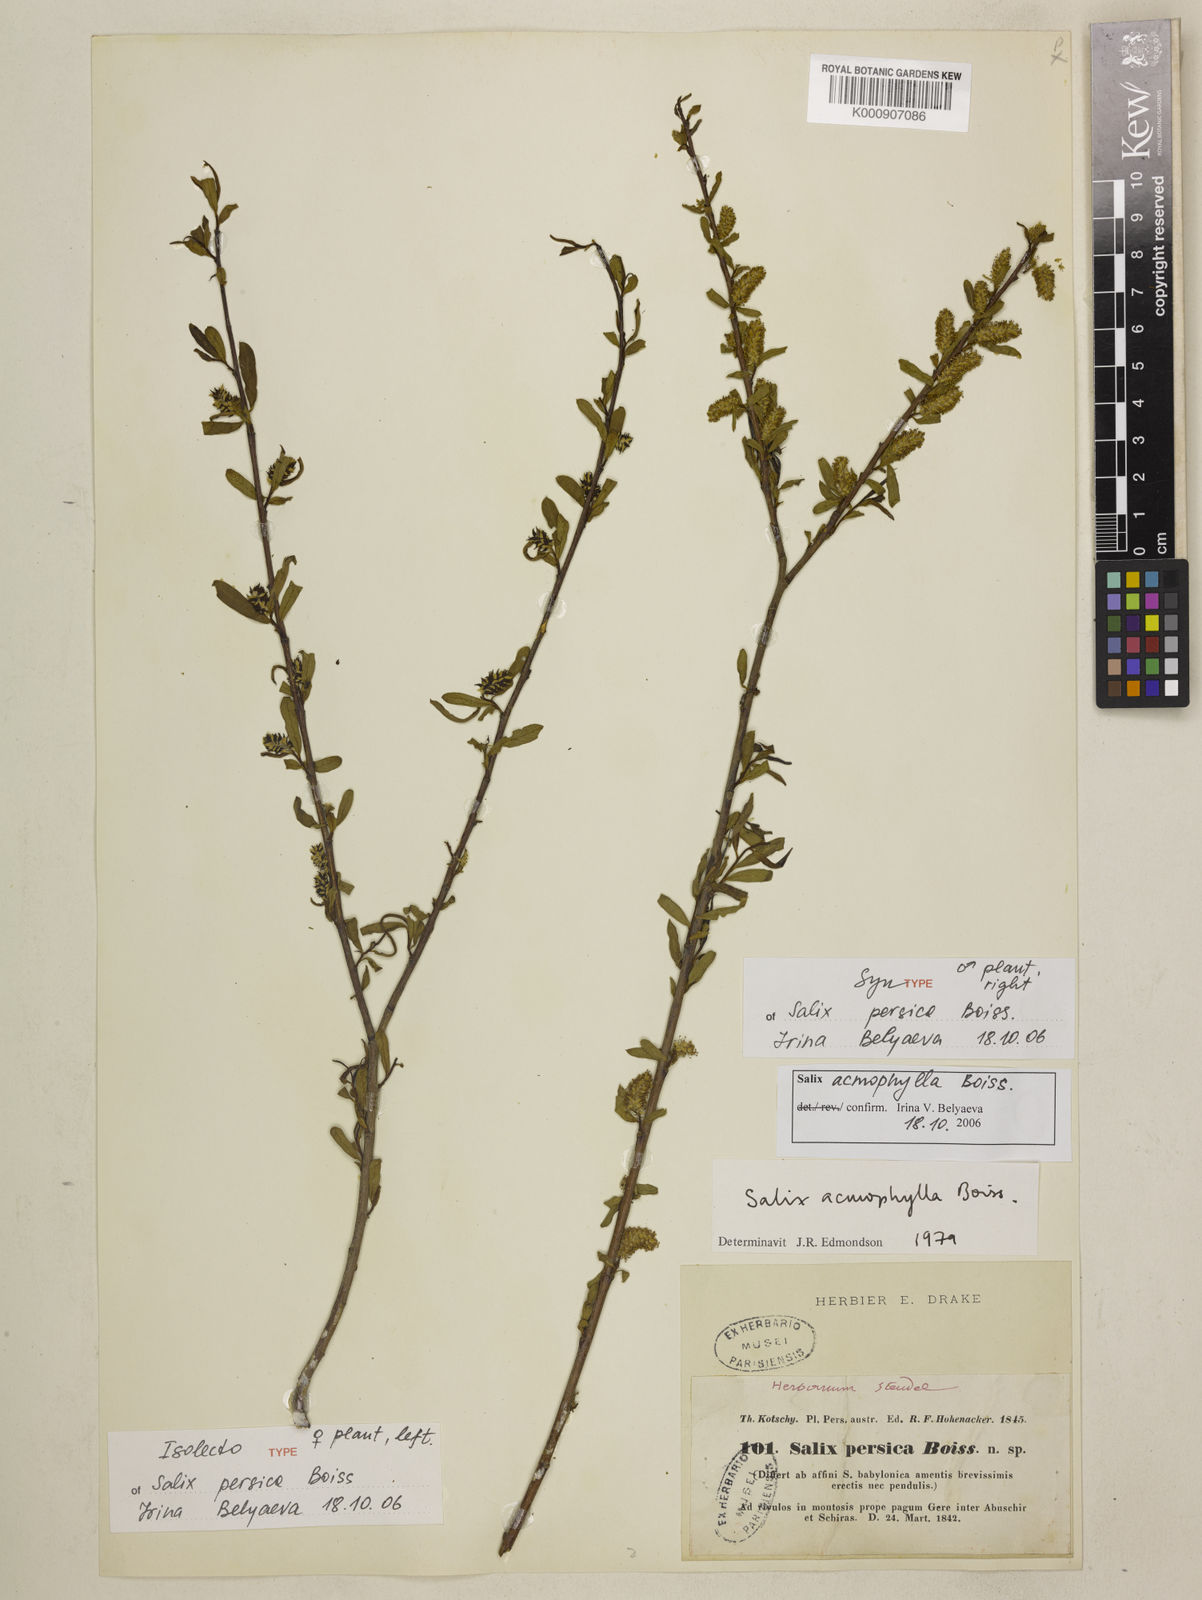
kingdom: Plantae
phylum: Tracheophyta
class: Magnoliopsida
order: Malpighiales
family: Salicaceae
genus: Salix
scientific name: Salix acmophylla
